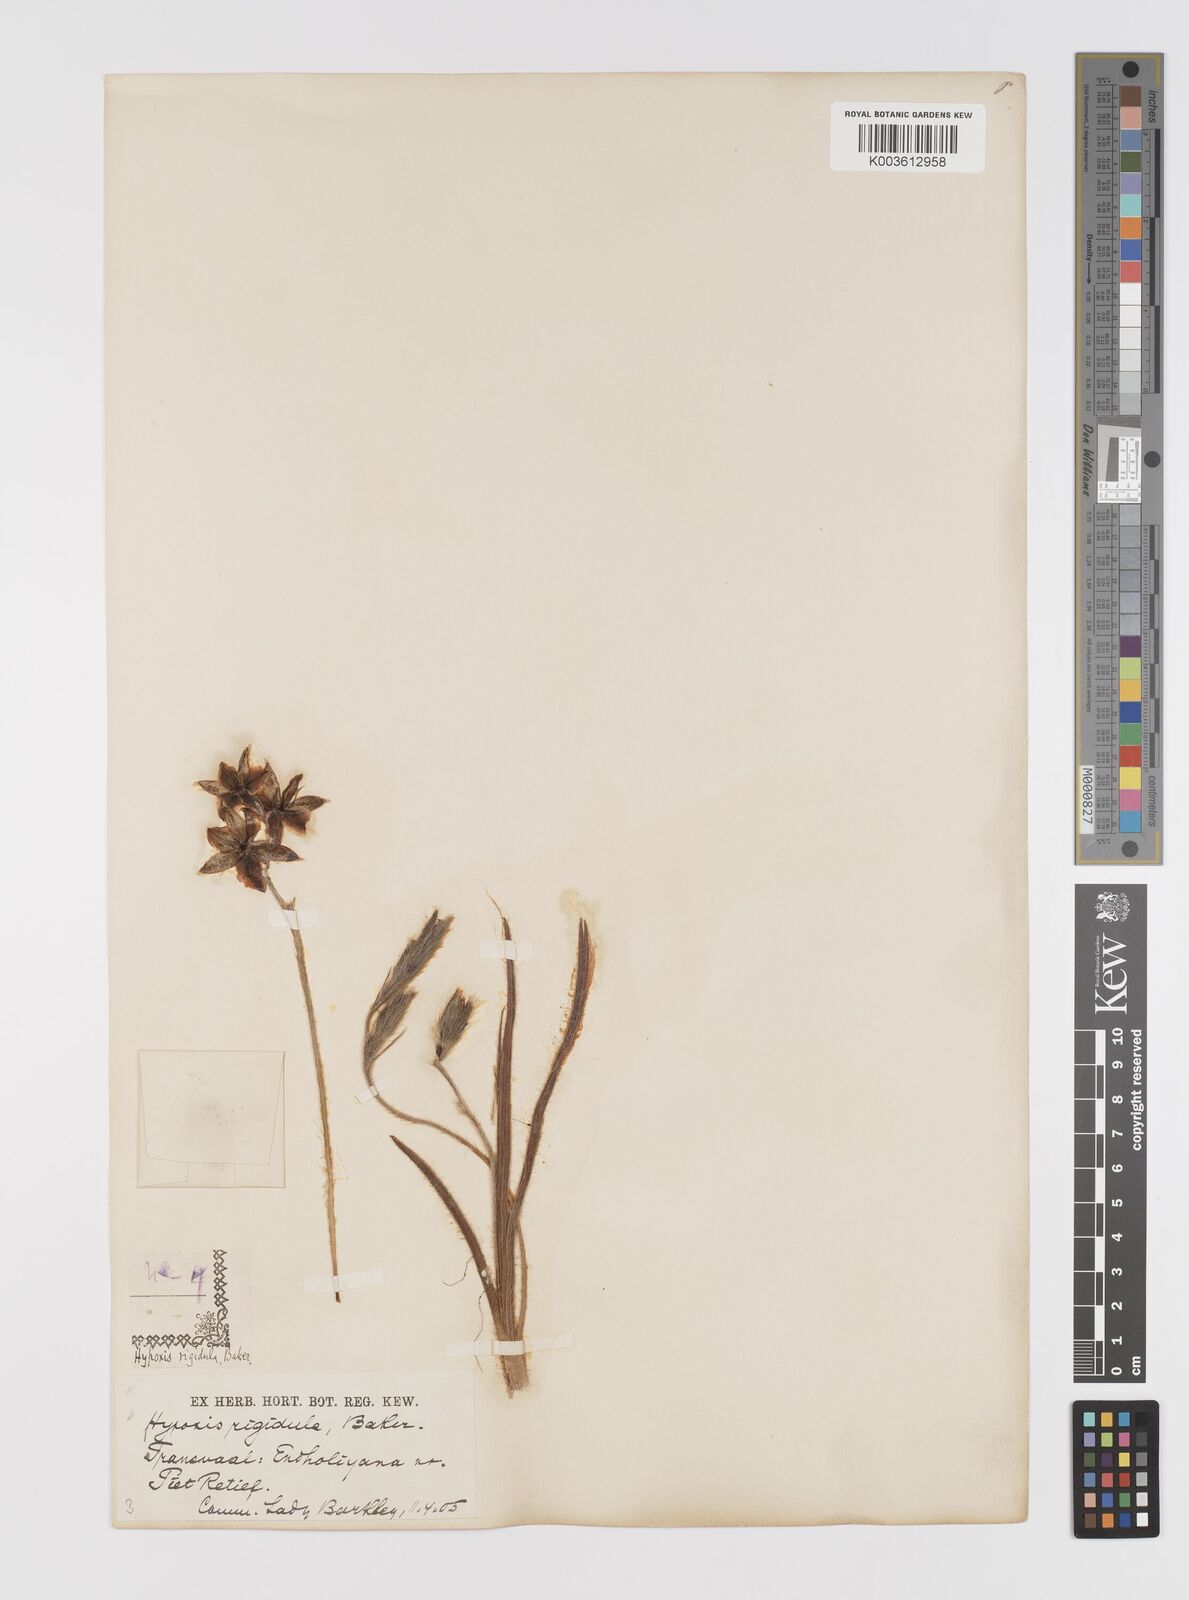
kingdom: Plantae
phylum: Tracheophyta
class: Liliopsida
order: Asparagales
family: Hypoxidaceae
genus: Hypoxis
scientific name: Hypoxis rigidula
